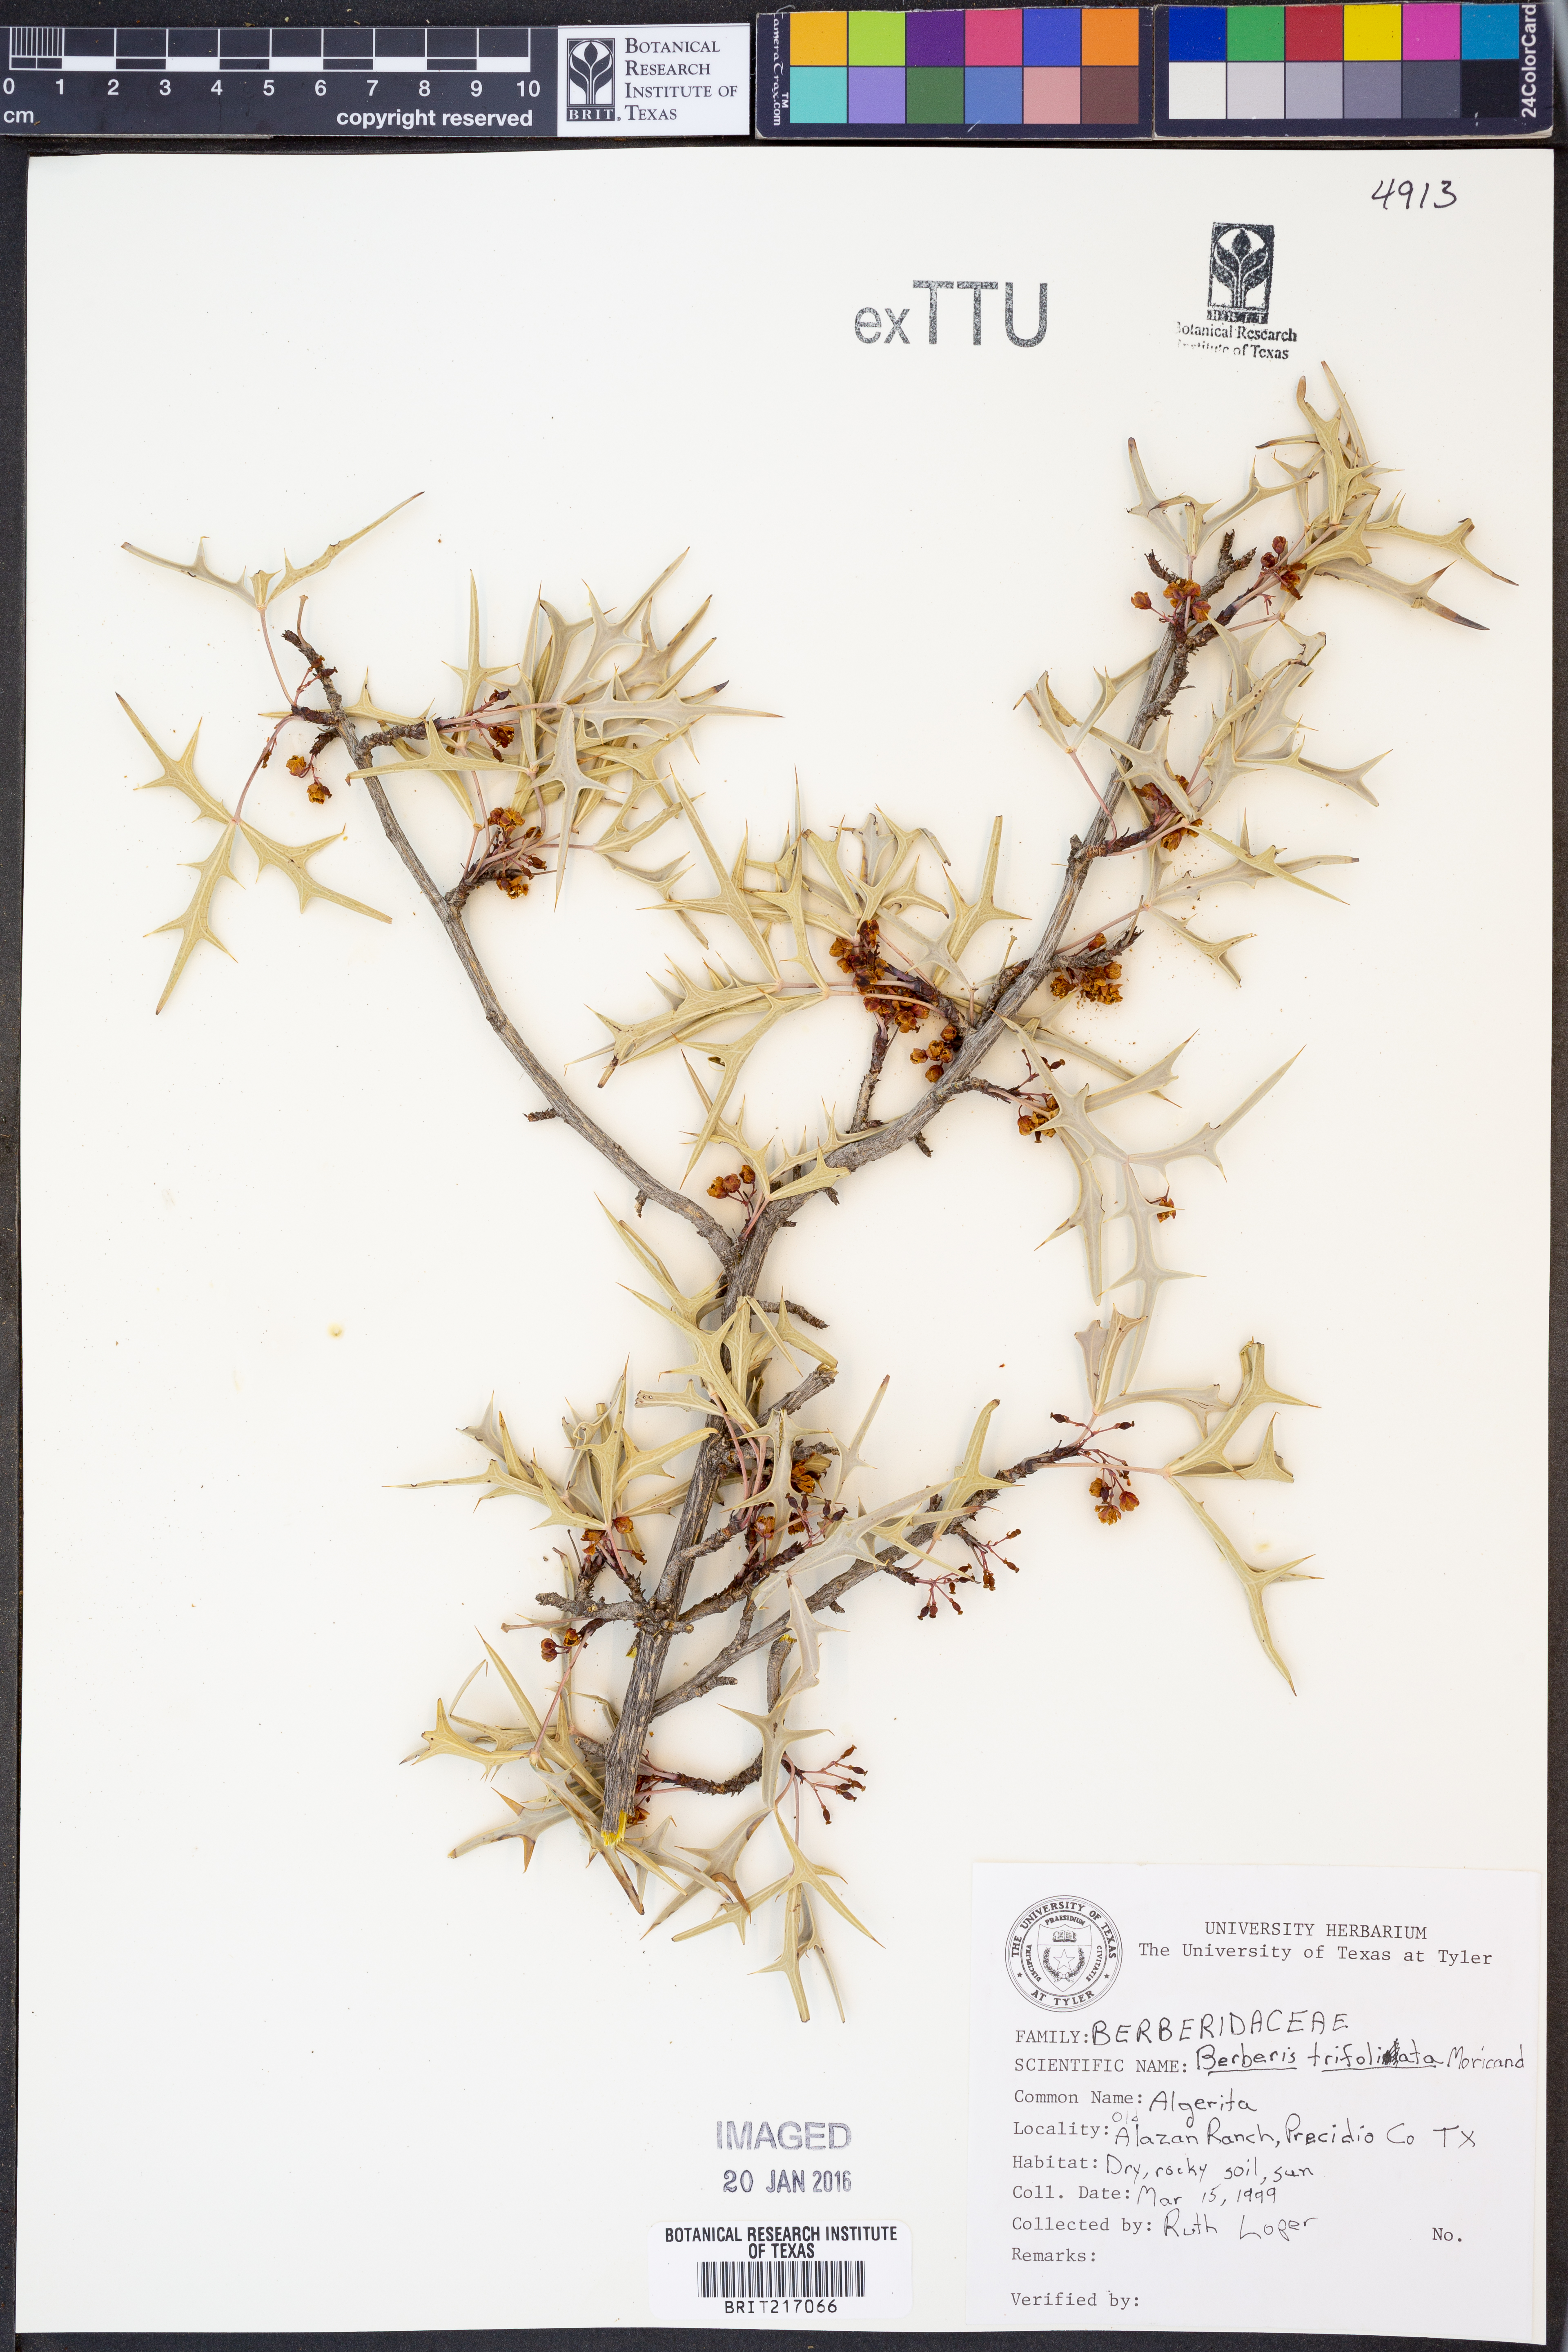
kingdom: Plantae
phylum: Tracheophyta
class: Magnoliopsida
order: Ranunculales
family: Berberidaceae
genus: Alloberberis
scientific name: Alloberberis fremontii
